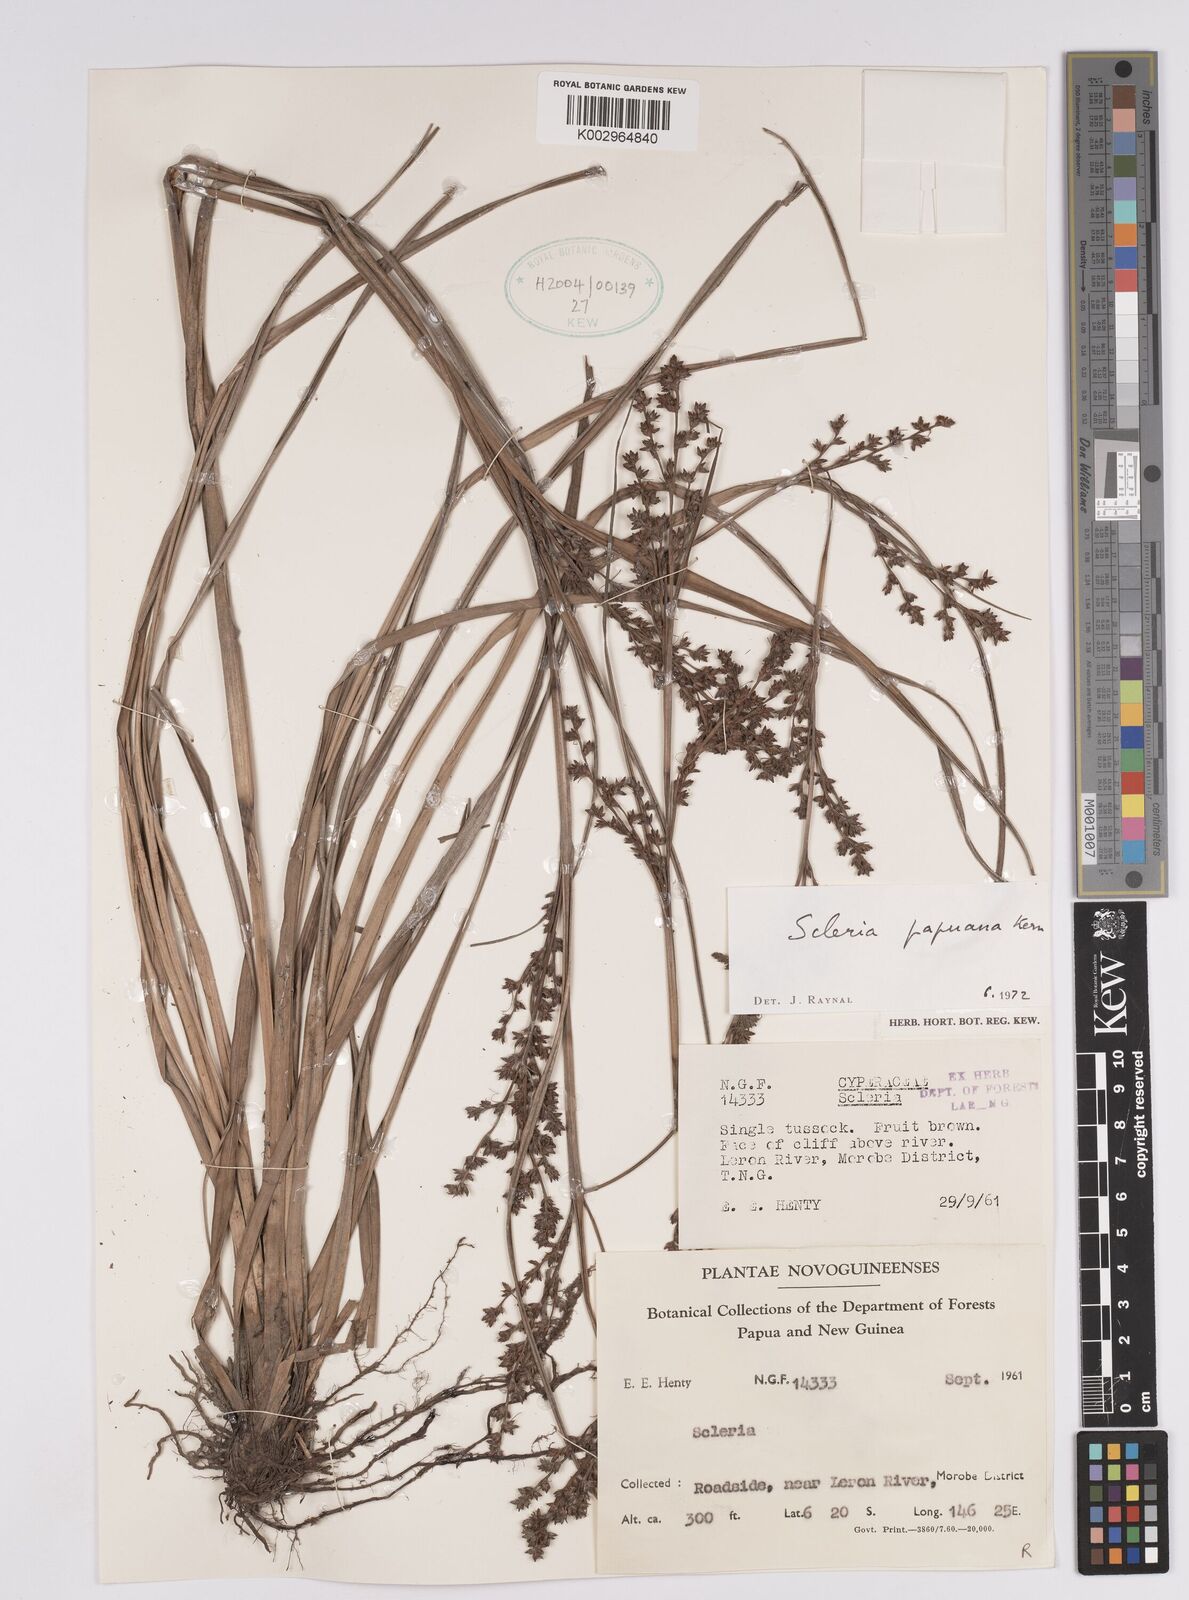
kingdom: Plantae
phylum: Tracheophyta
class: Liliopsida
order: Poales
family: Cyperaceae
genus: Scleria
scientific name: Scleria papuana
